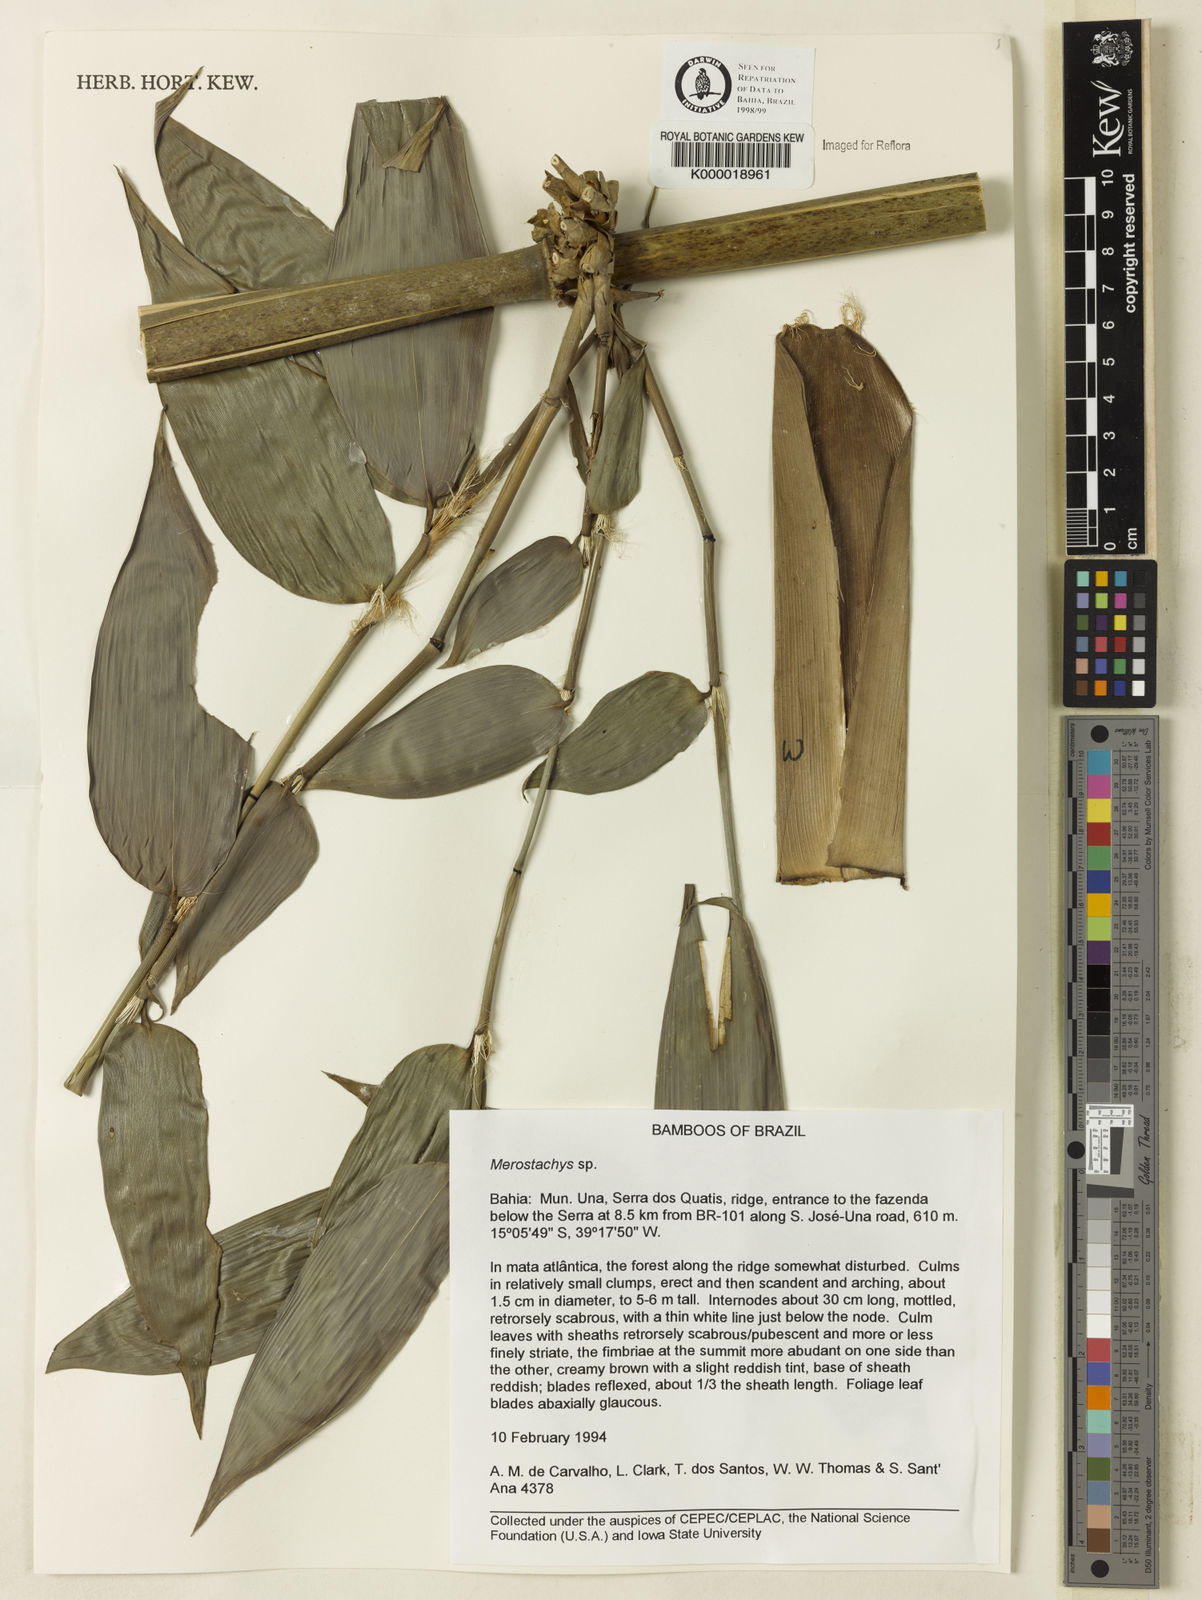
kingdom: Plantae
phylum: Tracheophyta
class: Liliopsida
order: Poales
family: Poaceae
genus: Merostachys
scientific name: Merostachys
